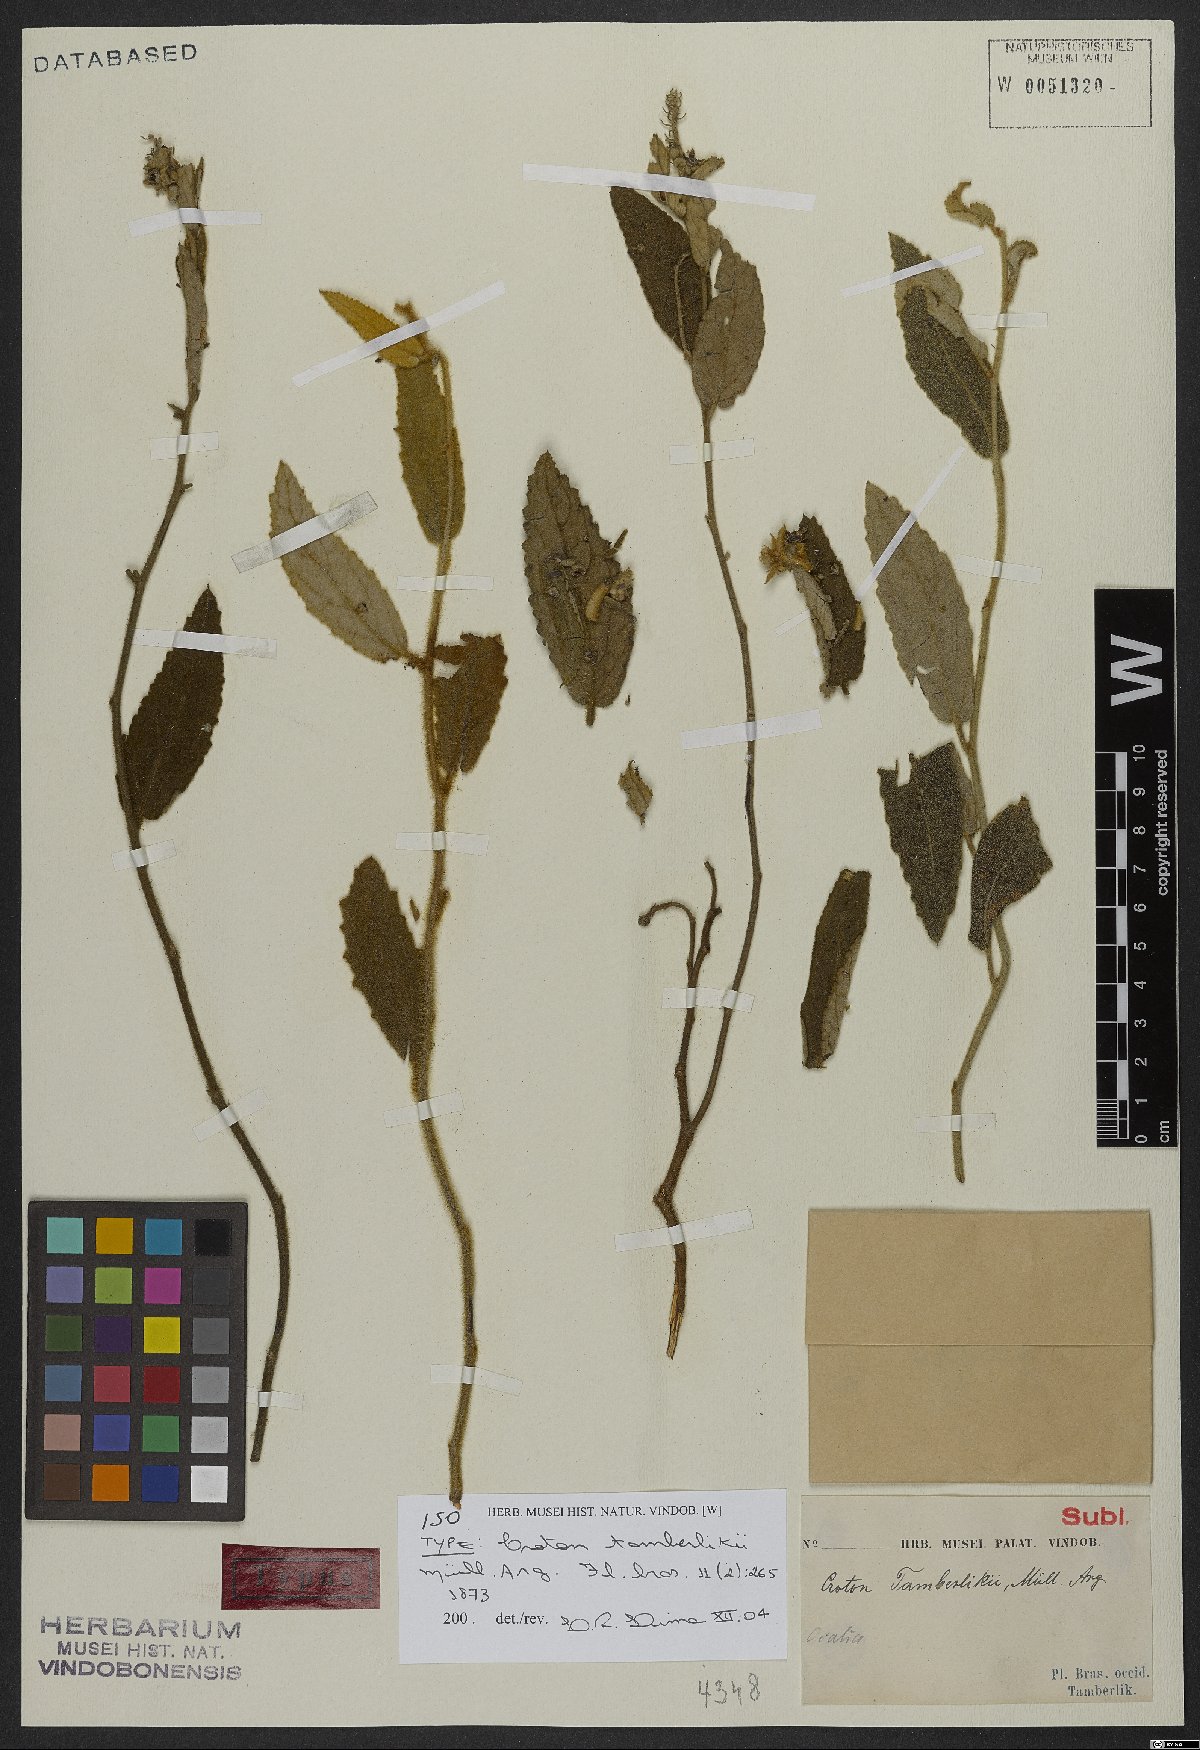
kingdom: Plantae
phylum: Tracheophyta
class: Magnoliopsida
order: Malpighiales
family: Euphorbiaceae
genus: Croton
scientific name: Croton spica
